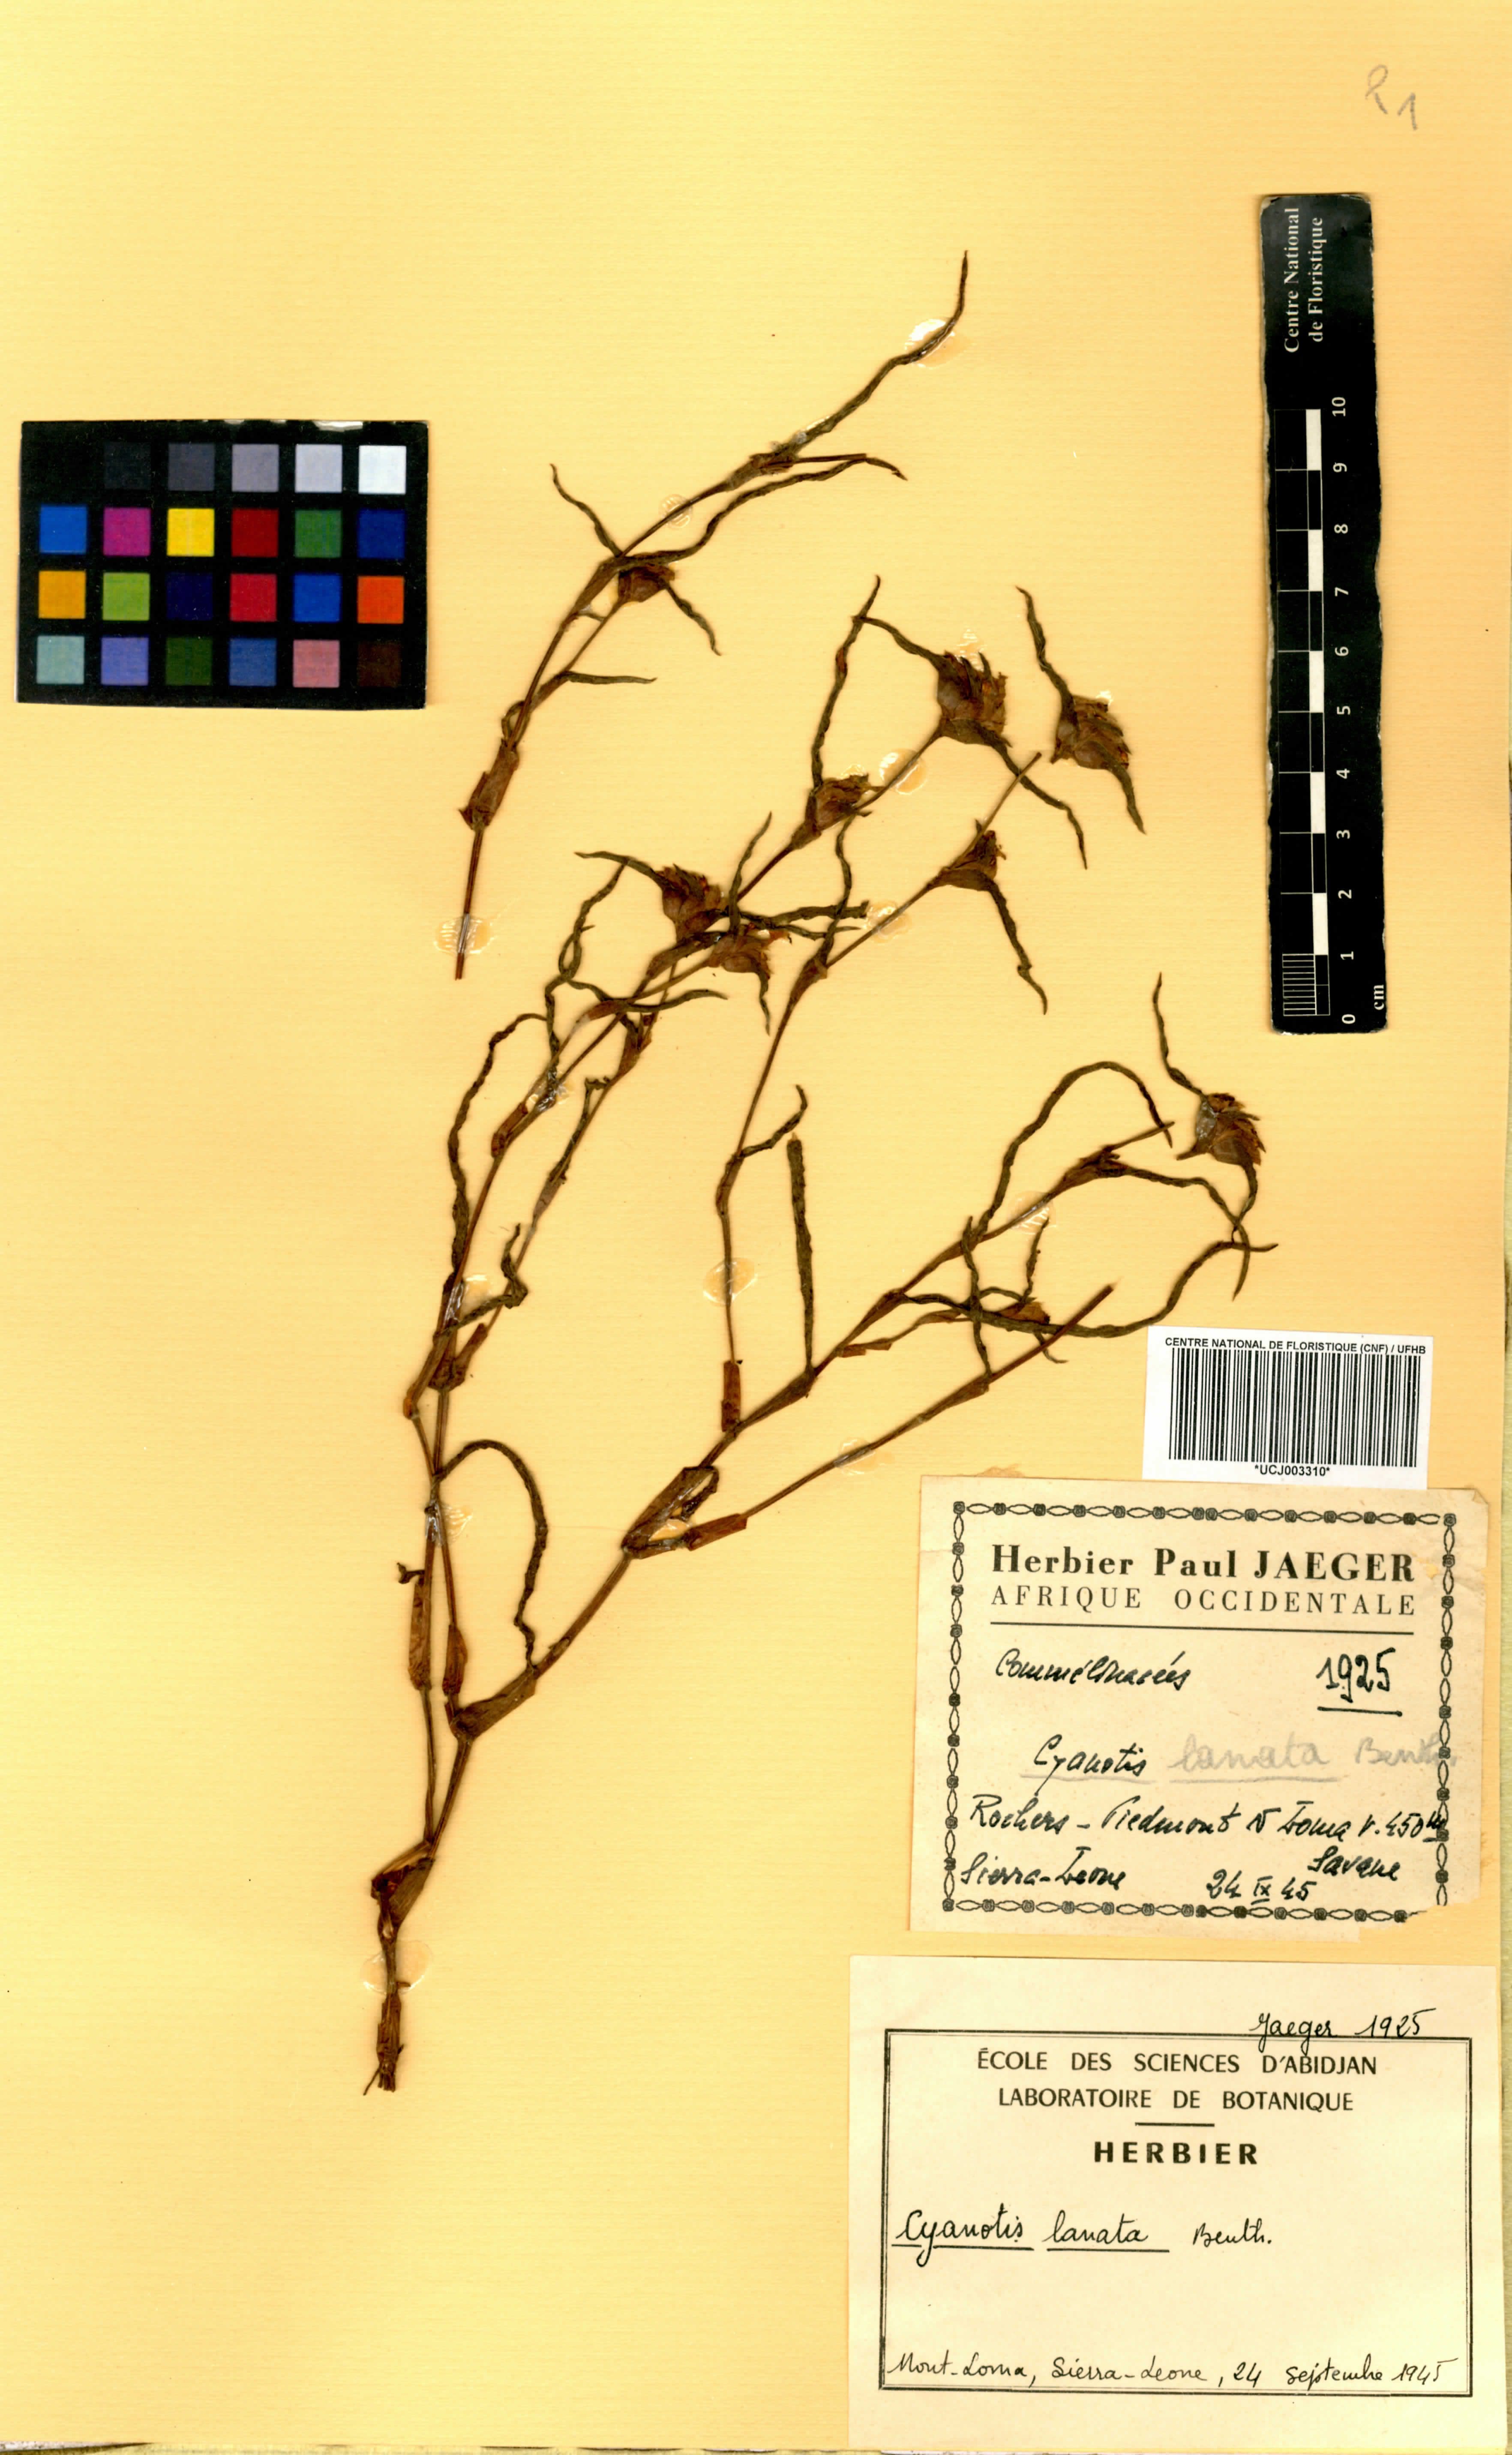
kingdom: Plantae
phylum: Tracheophyta
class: Liliopsida
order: Commelinales
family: Commelinaceae
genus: Cyanotis
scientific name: Cyanotis lanata
